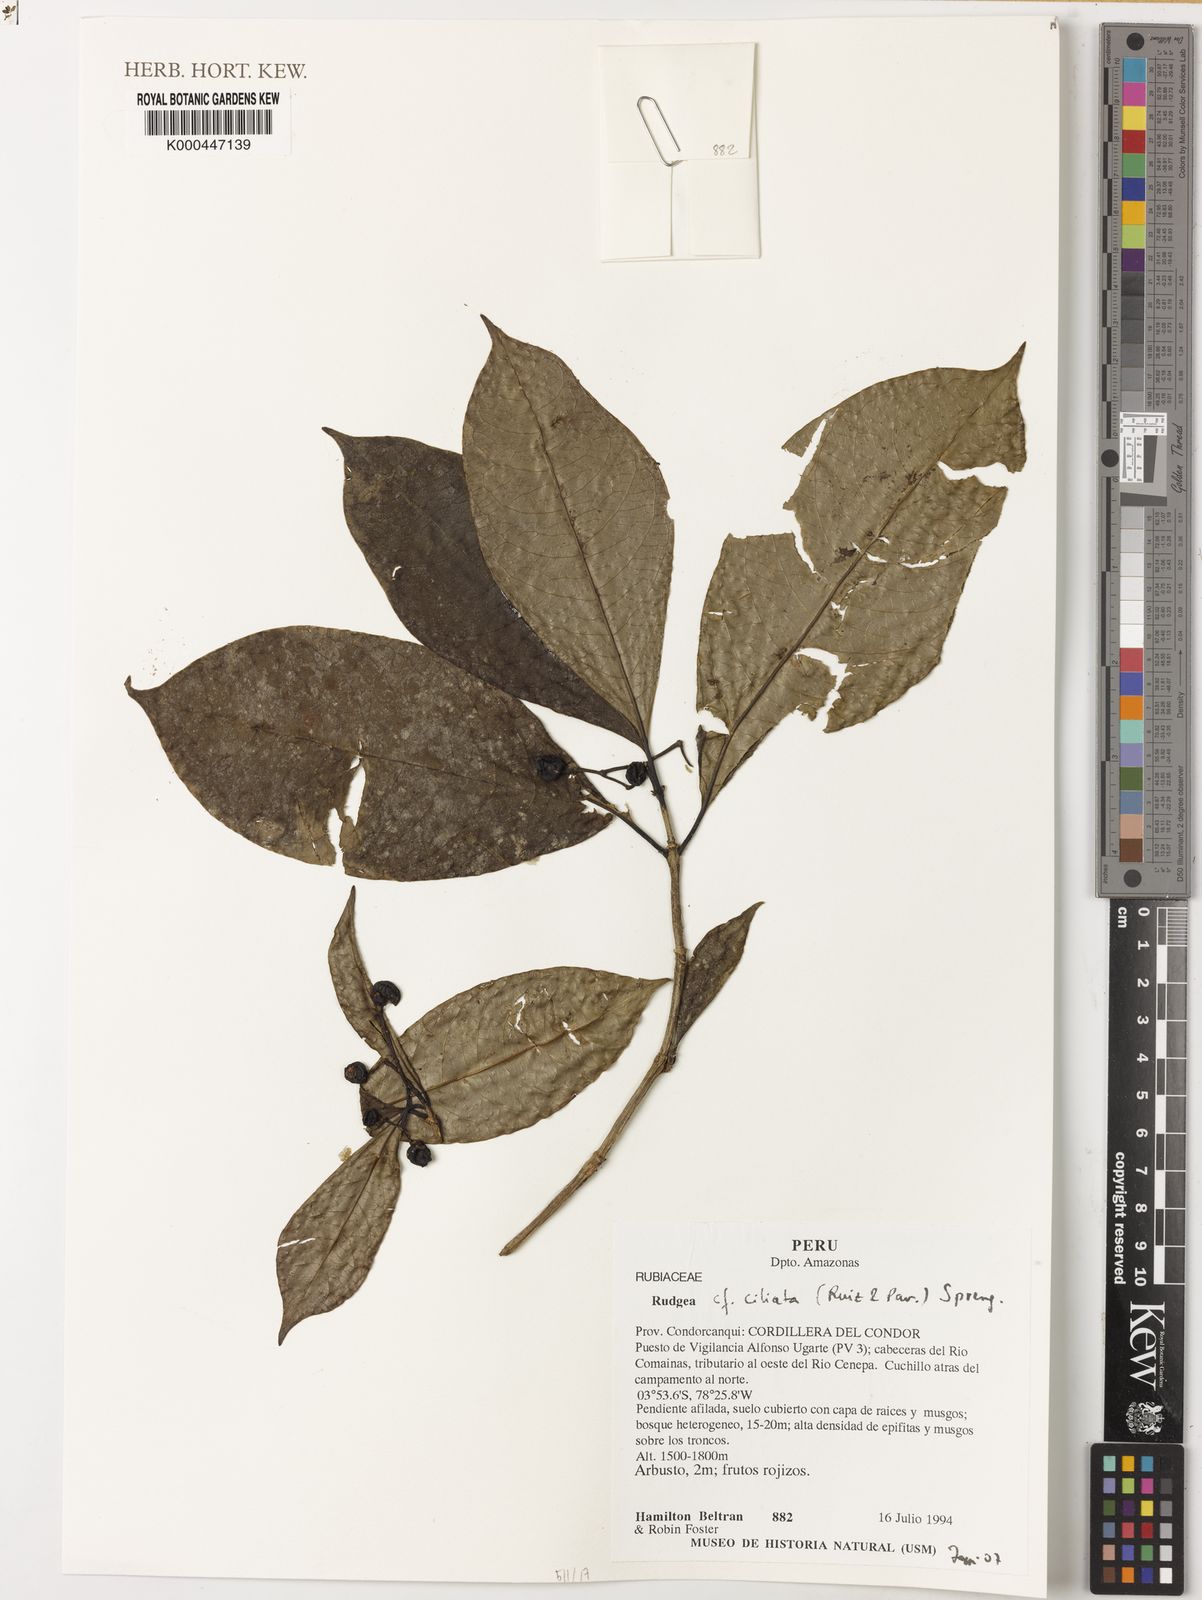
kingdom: Plantae
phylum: Tracheophyta
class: Magnoliopsida
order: Gentianales
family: Rubiaceae
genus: Rudgea
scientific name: Rudgea ciliata
